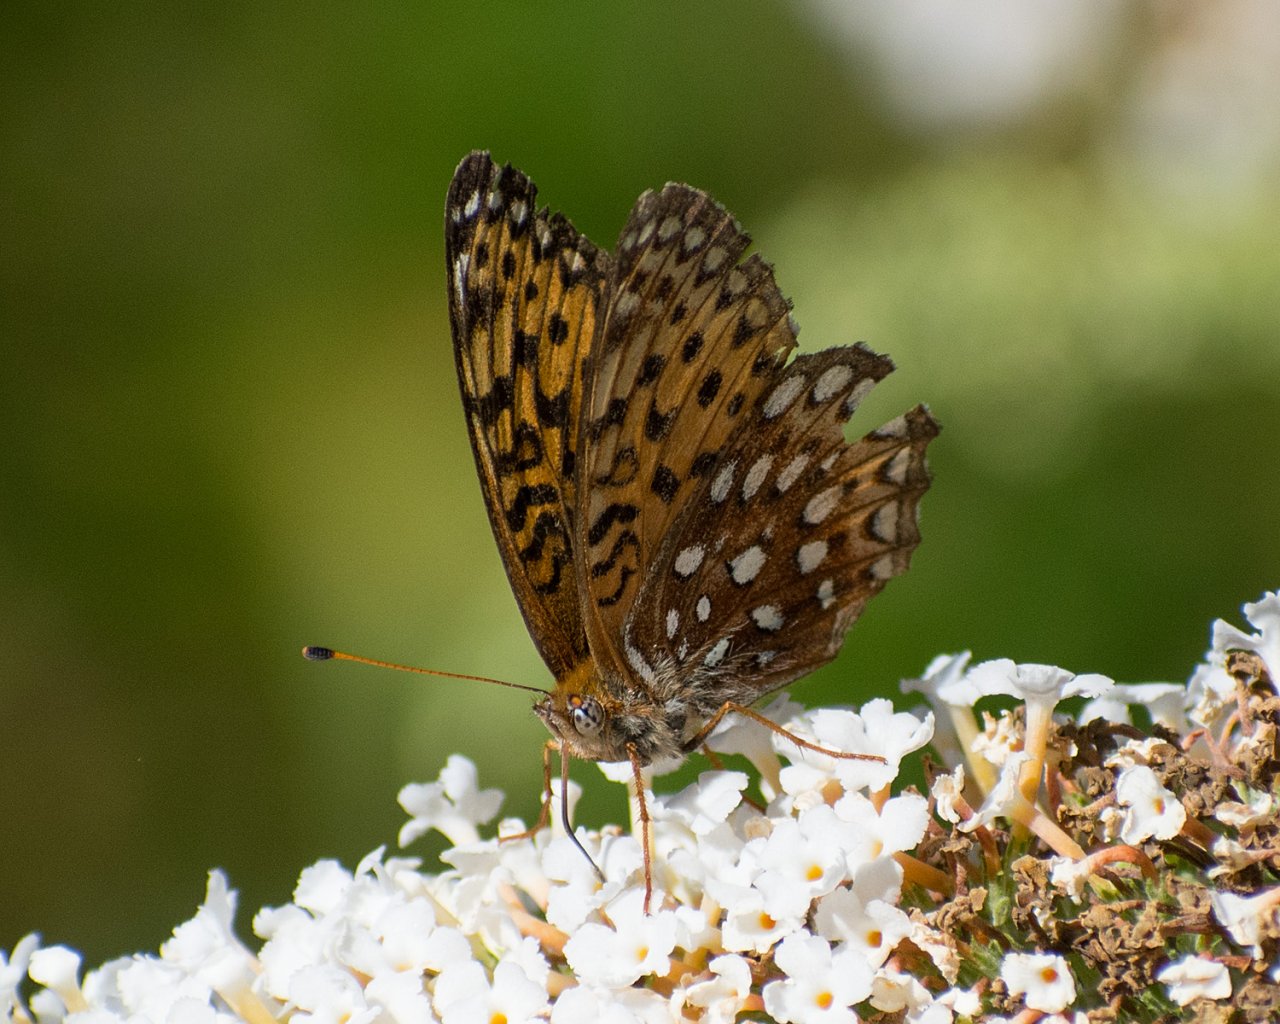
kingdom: Animalia
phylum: Arthropoda
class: Insecta
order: Lepidoptera
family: Nymphalidae
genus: Speyeria
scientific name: Speyeria atlantis
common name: Northwestern Fritillary
